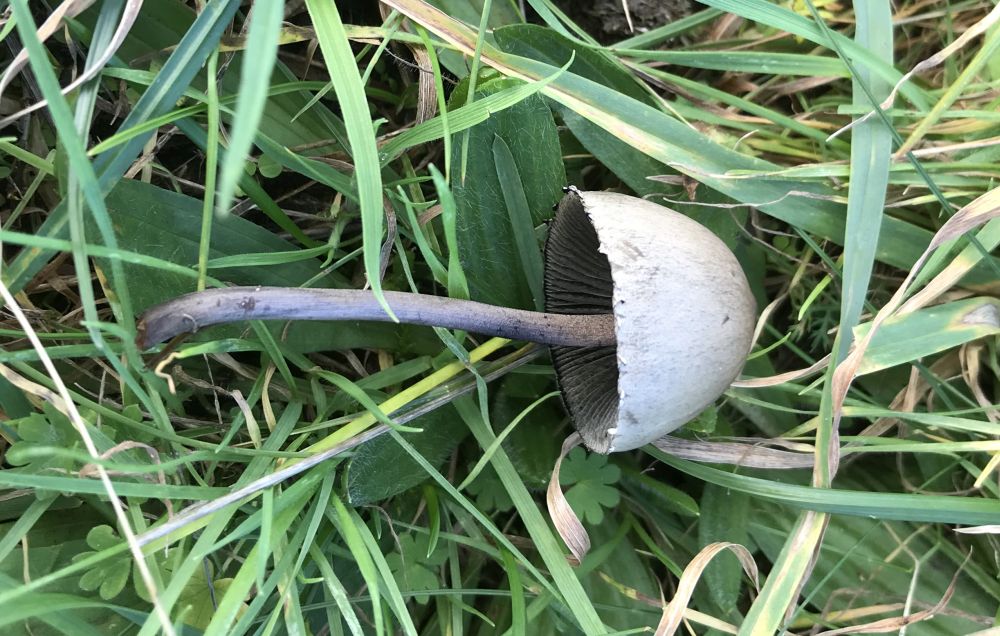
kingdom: Fungi
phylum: Basidiomycota
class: Agaricomycetes
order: Agaricales
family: Bolbitiaceae
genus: Panaeolus
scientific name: Panaeolus papilionaceus
